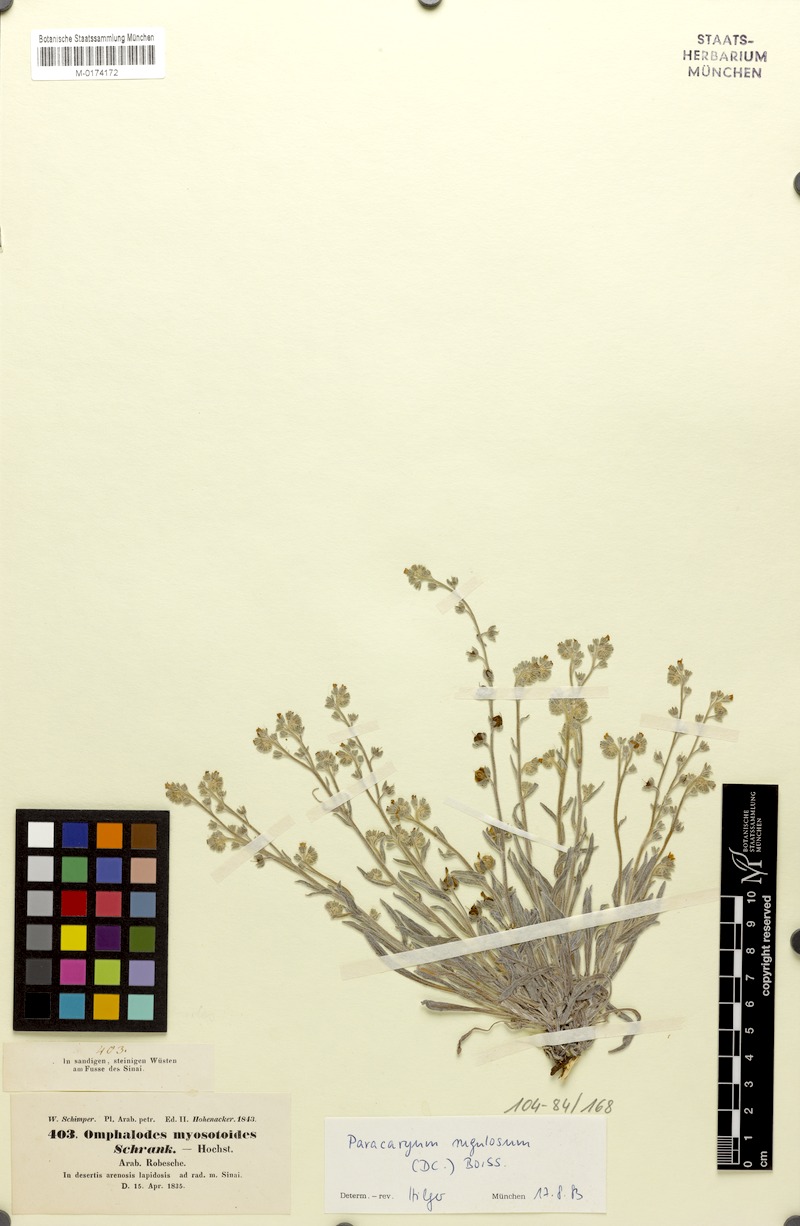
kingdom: Plantae
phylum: Tracheophyta
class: Magnoliopsida
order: Boraginales
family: Boraginaceae
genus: Paracaryum
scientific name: Paracaryum rugulosum
